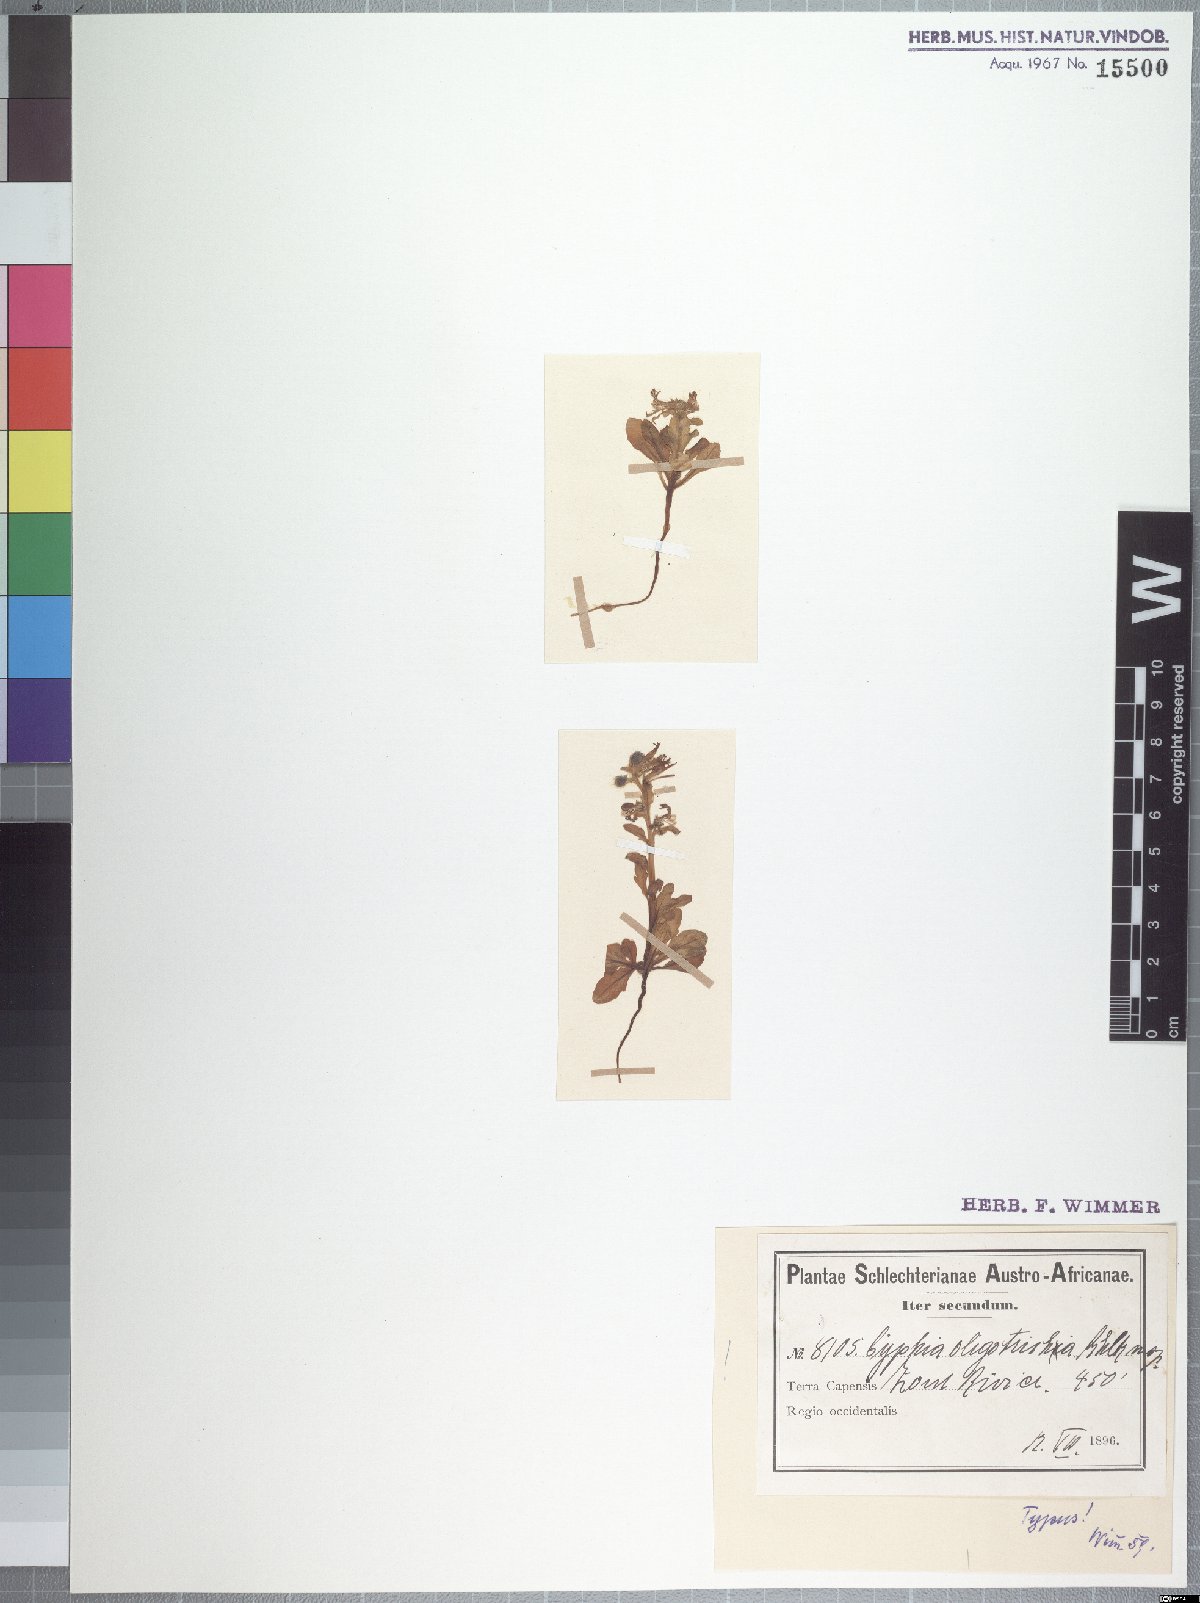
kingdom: Plantae
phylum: Tracheophyta
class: Magnoliopsida
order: Asterales
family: Campanulaceae
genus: Cyphia
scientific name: Cyphia oligotricha
